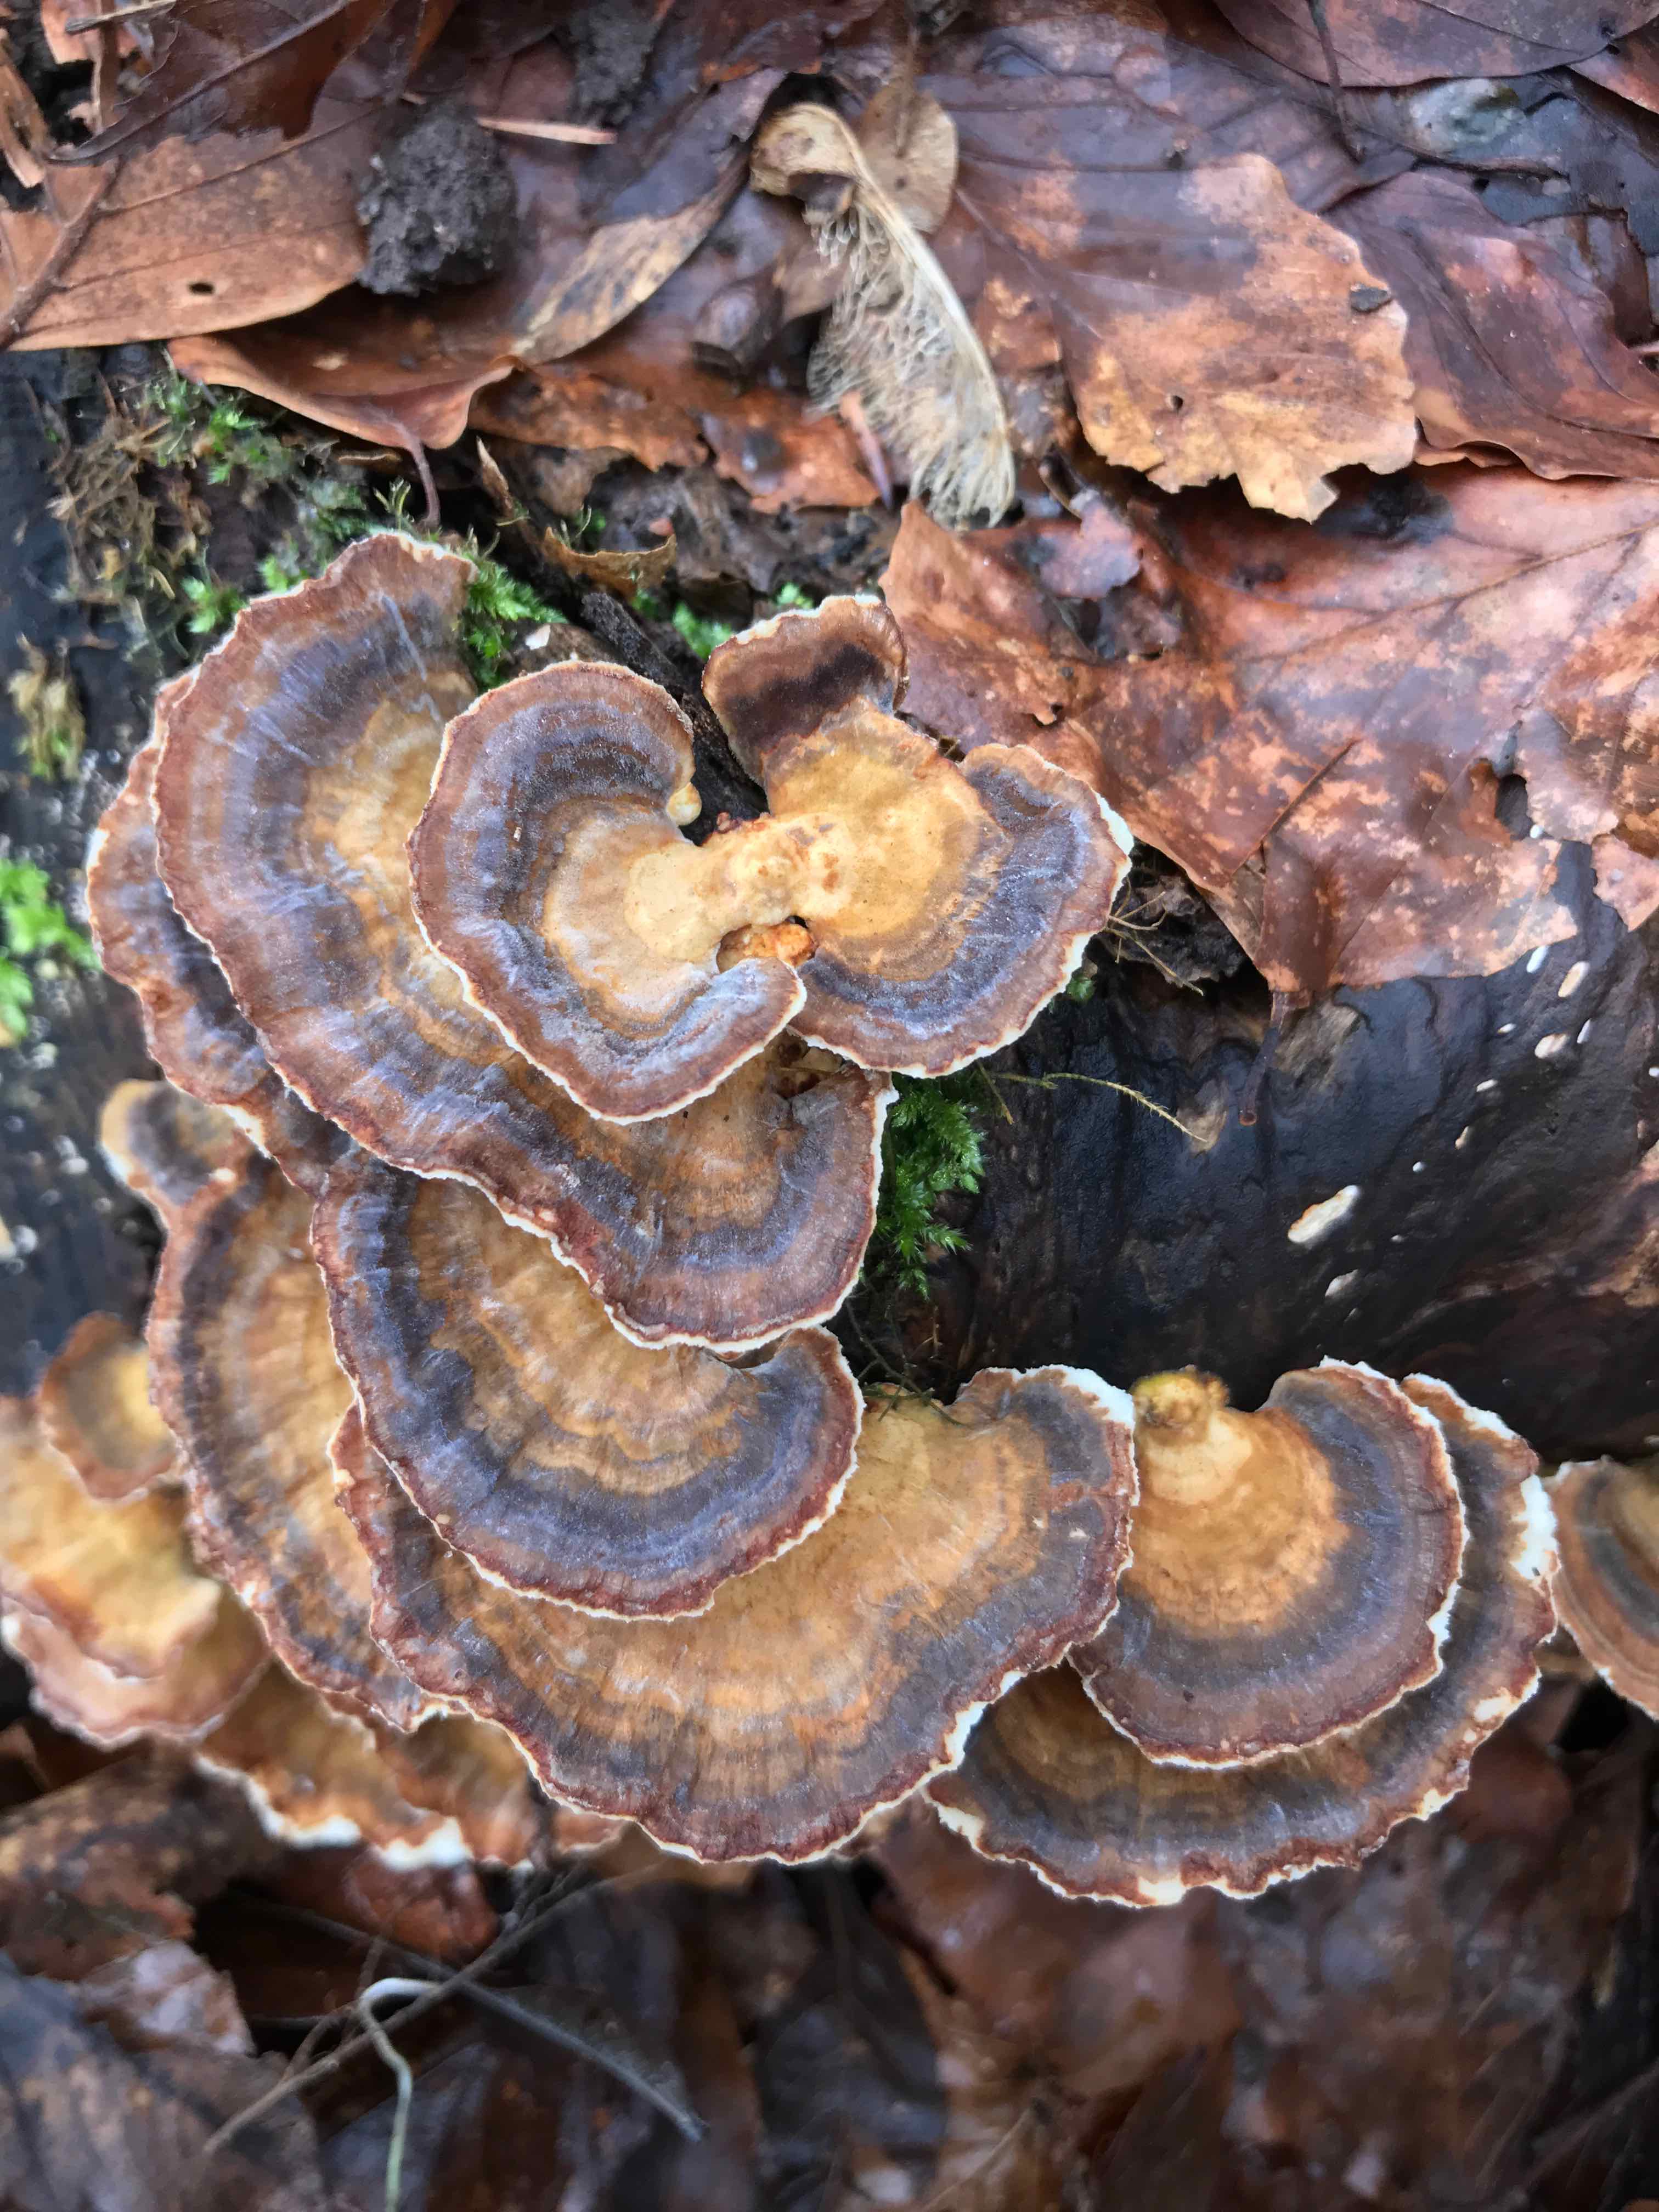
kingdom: Fungi
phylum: Basidiomycota
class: Agaricomycetes
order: Polyporales
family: Polyporaceae
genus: Trametes
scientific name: Trametes versicolor
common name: broget læderporesvamp
